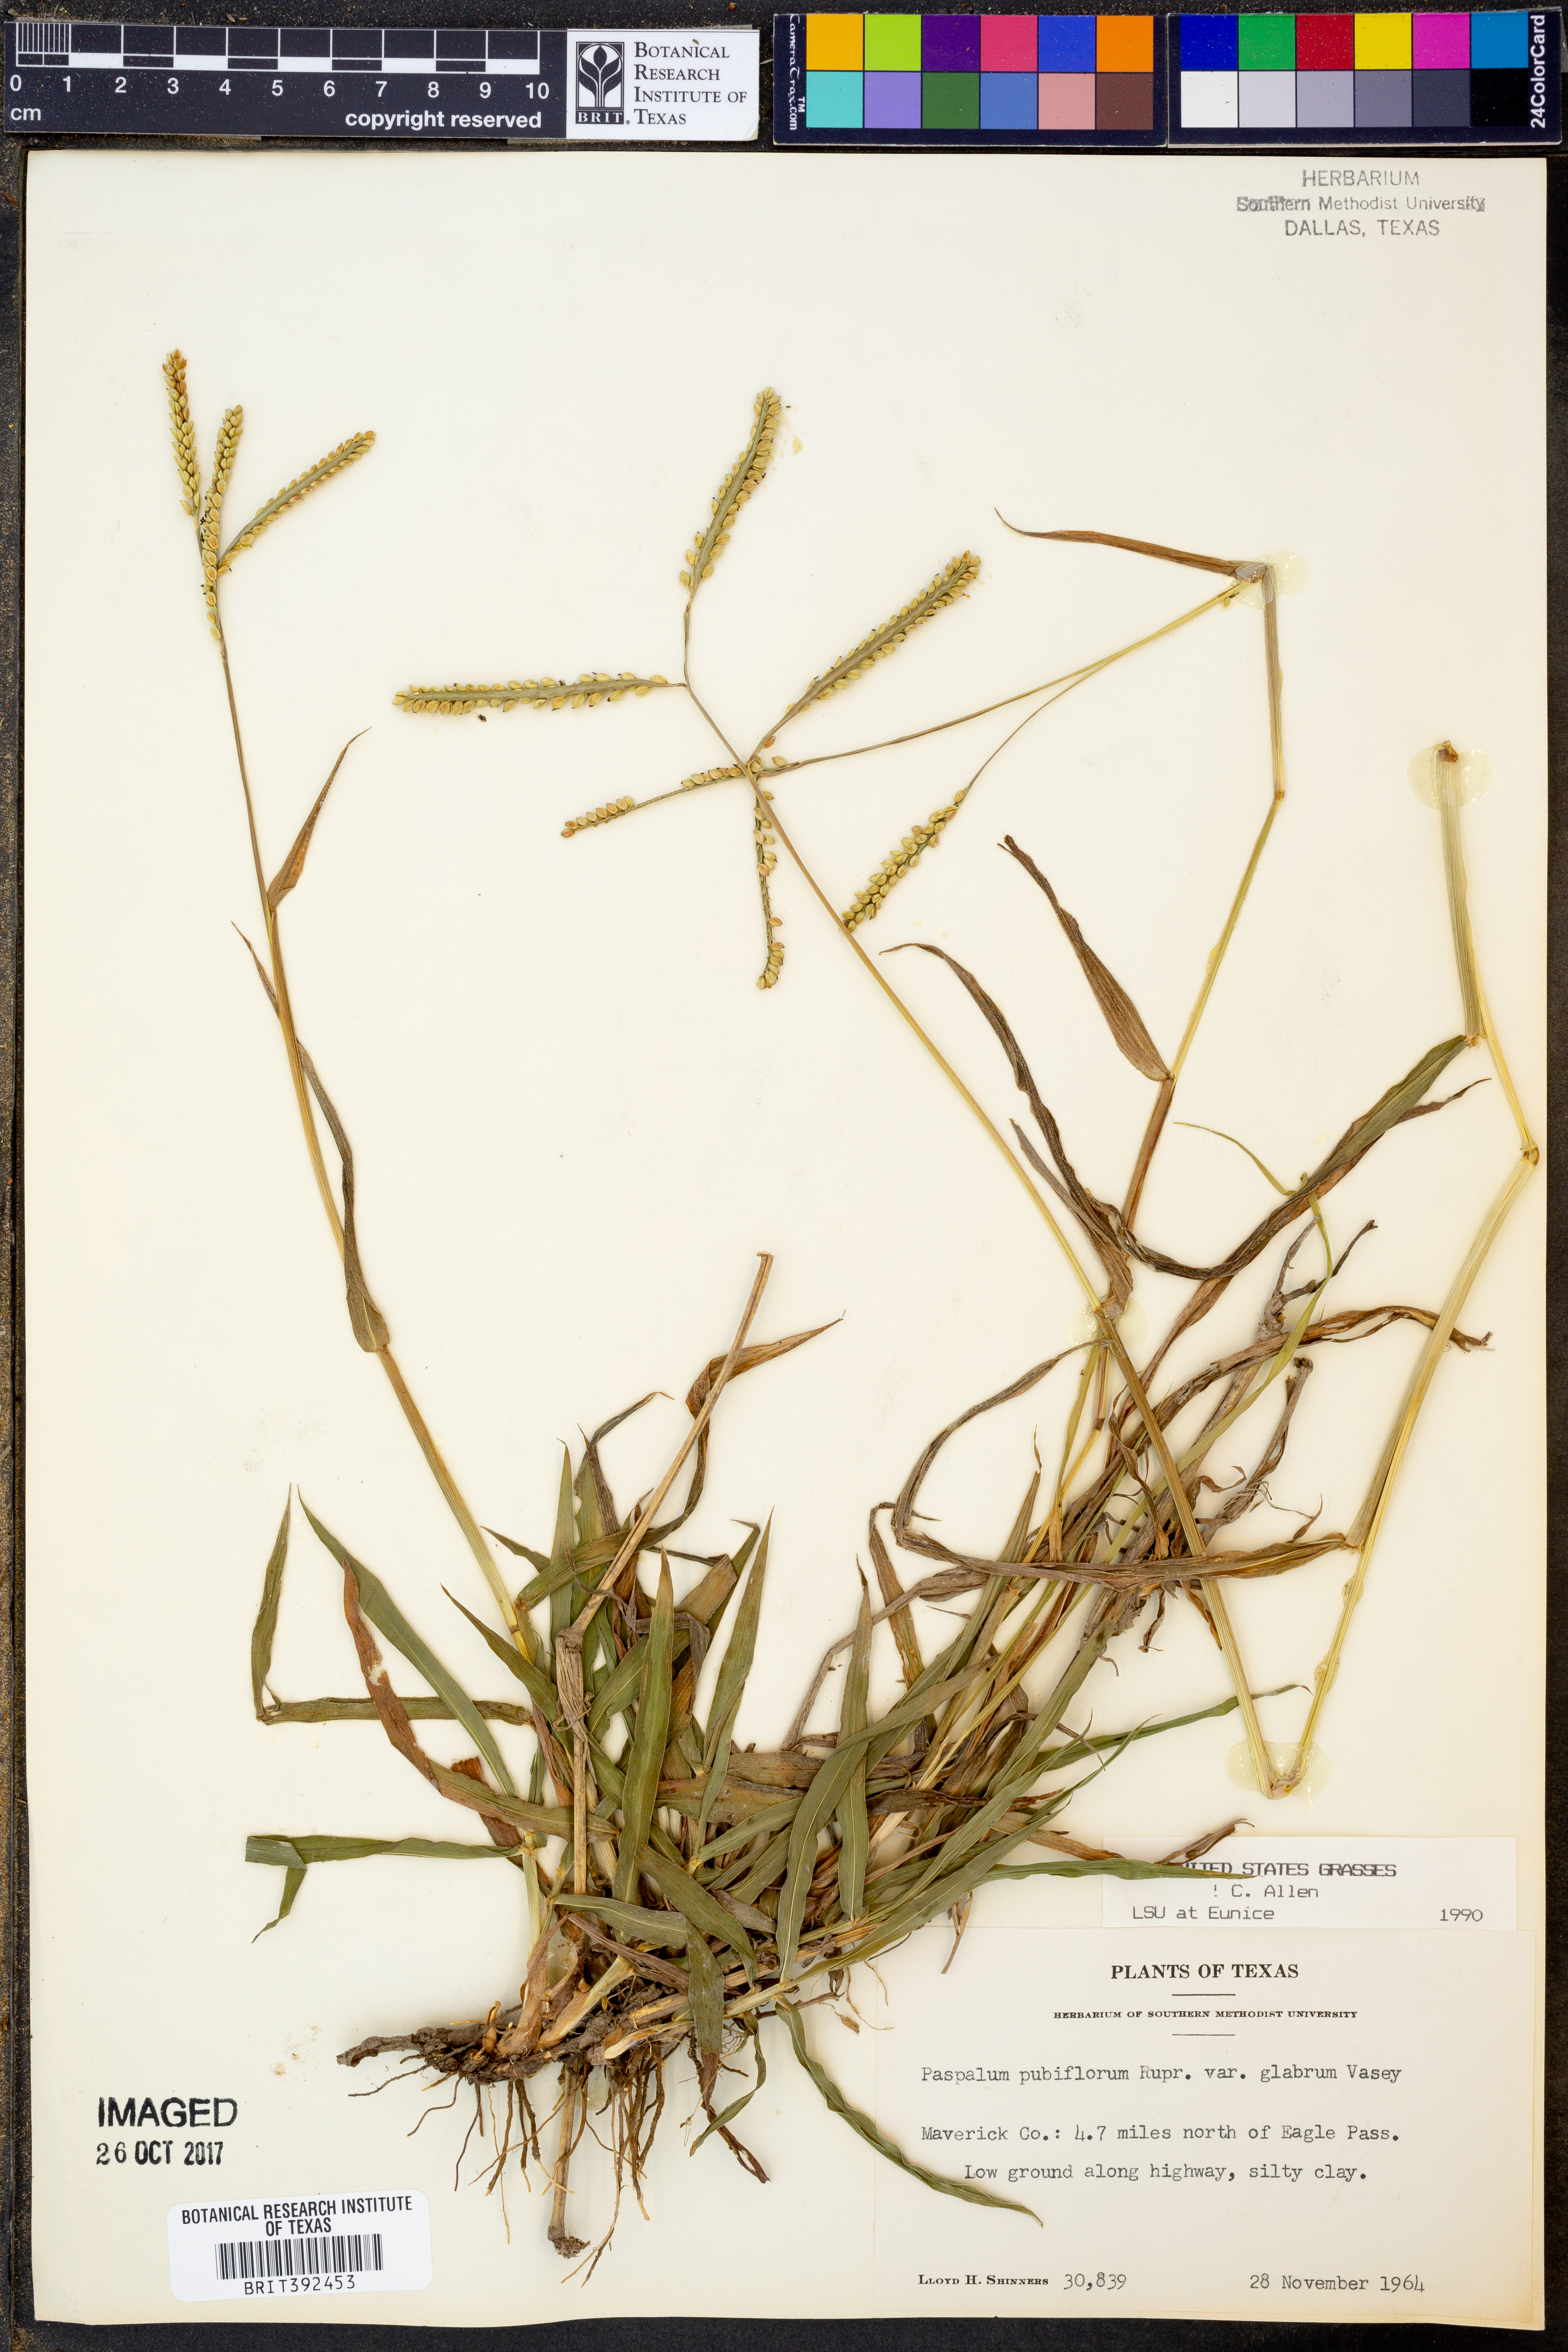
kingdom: Plantae
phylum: Tracheophyta
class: Liliopsida
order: Poales
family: Poaceae
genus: Paspalum
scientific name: Paspalum pubiflorum
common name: Hairy-seed paspalum
